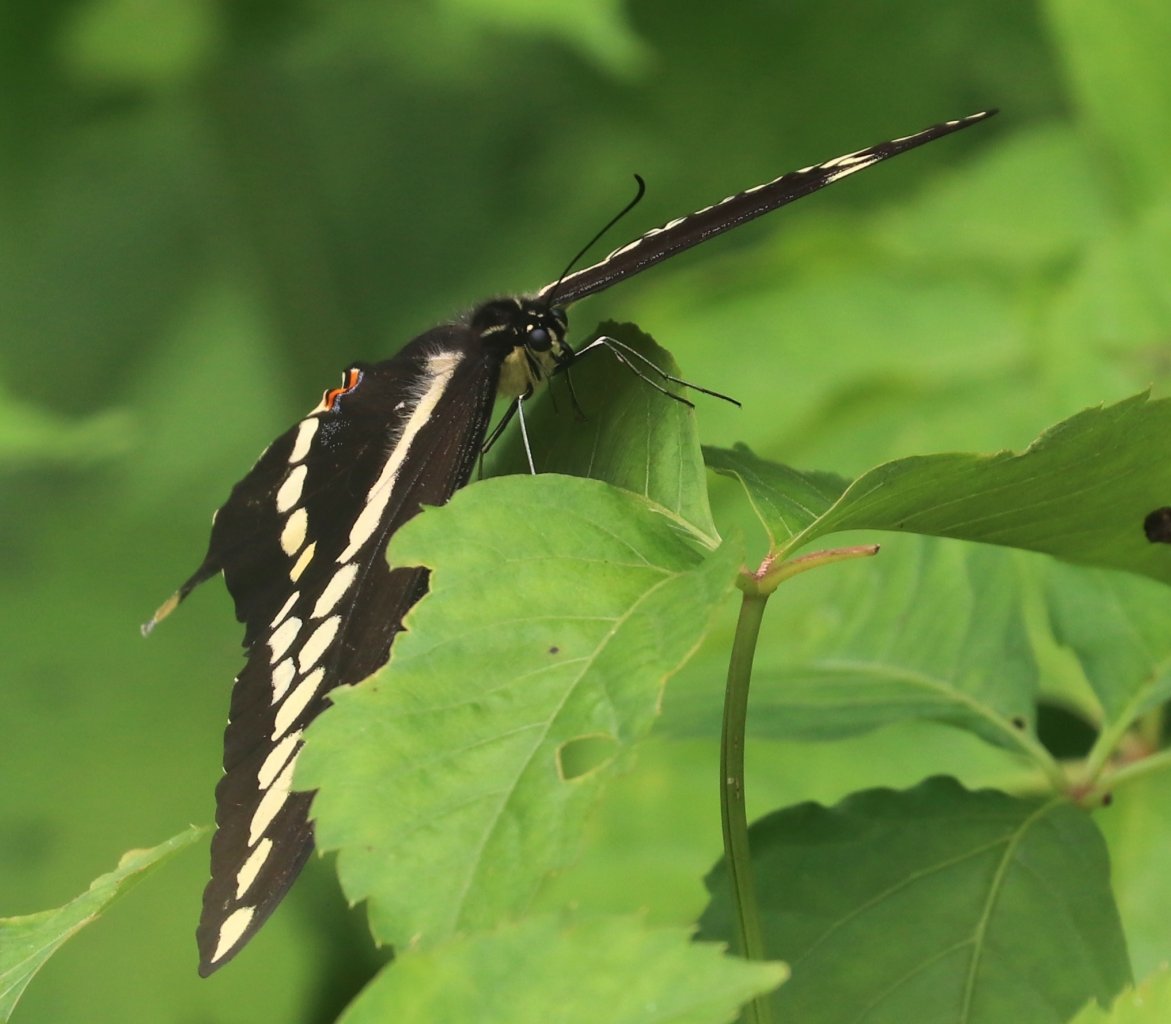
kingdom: Animalia
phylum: Arthropoda
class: Insecta
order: Lepidoptera
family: Papilionidae
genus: Papilio
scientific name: Papilio cresphontes
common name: Eastern Giant Swallowtail
